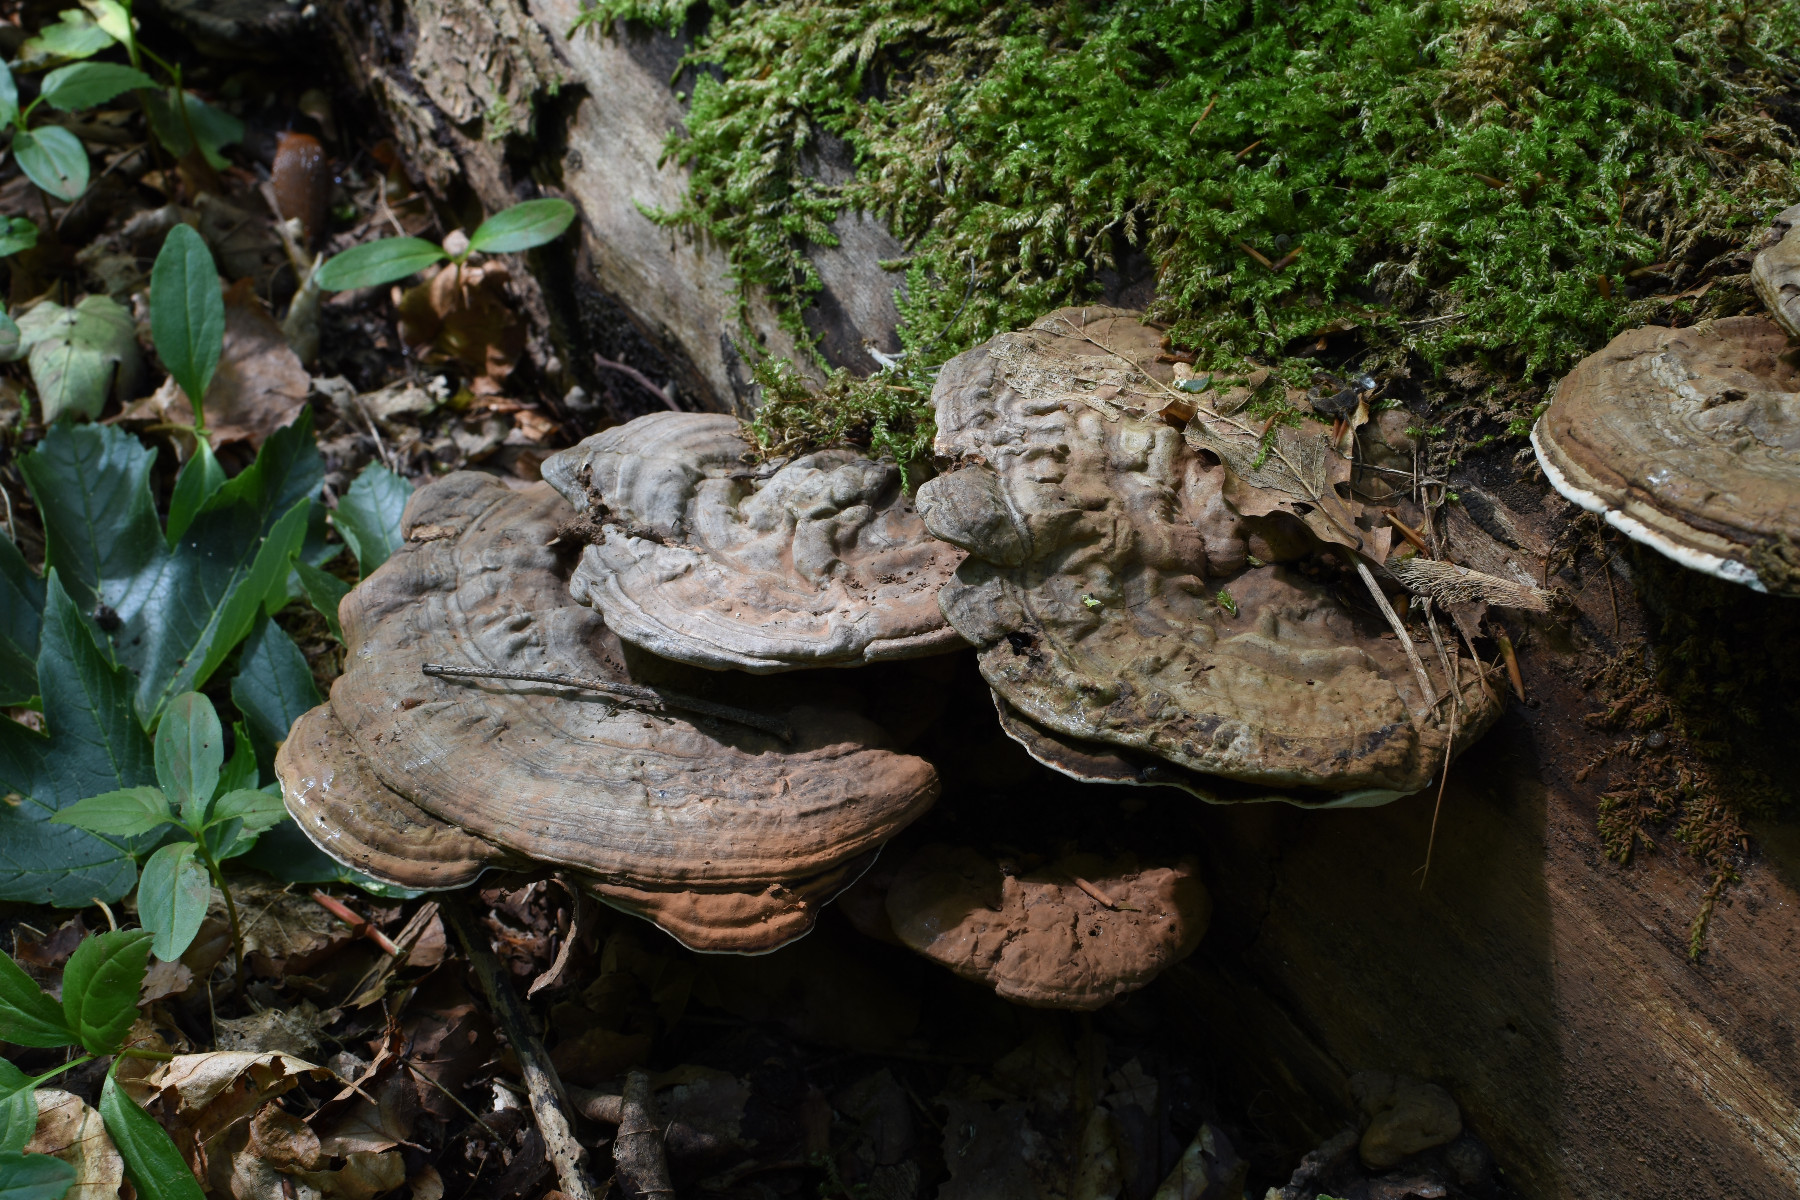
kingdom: Fungi
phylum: Basidiomycota
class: Agaricomycetes
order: Polyporales
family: Polyporaceae
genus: Ganoderma
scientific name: Ganoderma applanatum
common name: flad lakporesvamp
